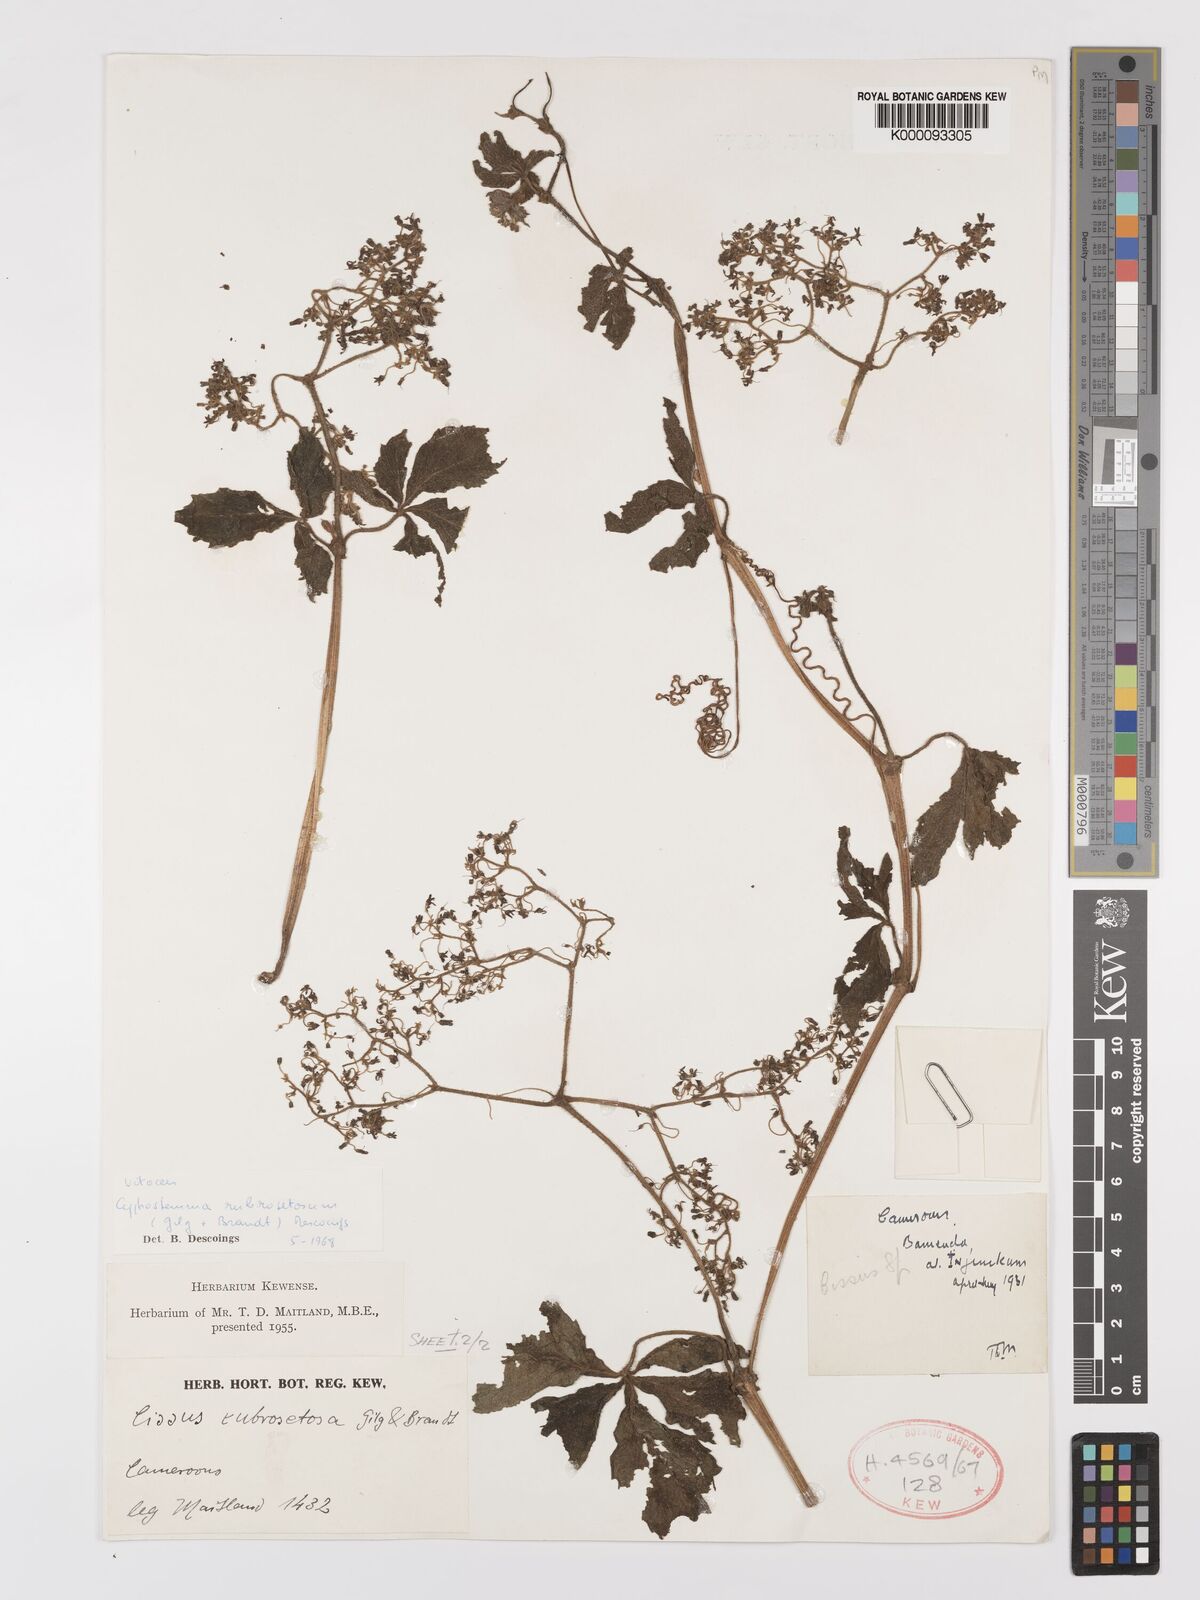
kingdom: Plantae
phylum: Tracheophyta
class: Magnoliopsida
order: Vitales
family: Vitaceae
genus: Cyphostemma
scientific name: Cyphostemma rubrosetosum
